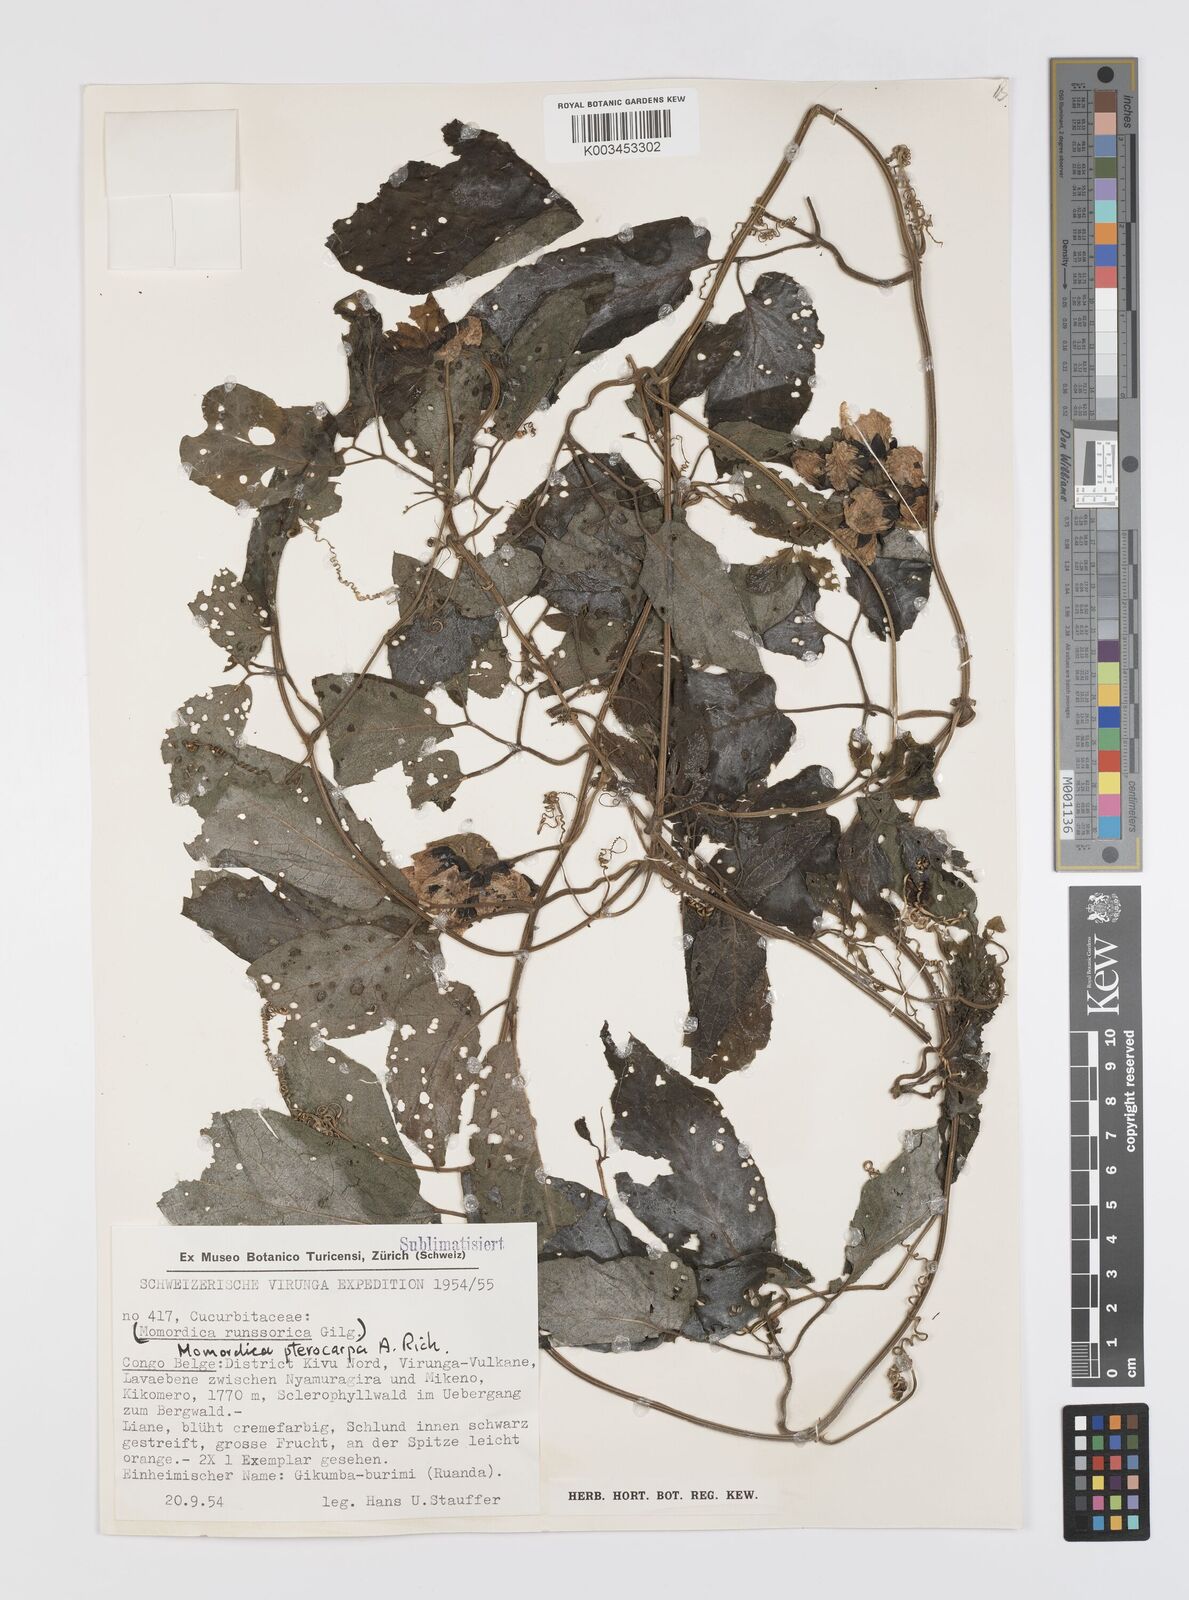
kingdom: Plantae
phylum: Tracheophyta
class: Magnoliopsida
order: Cucurbitales
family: Cucurbitaceae
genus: Momordica
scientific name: Momordica pterocarpa
